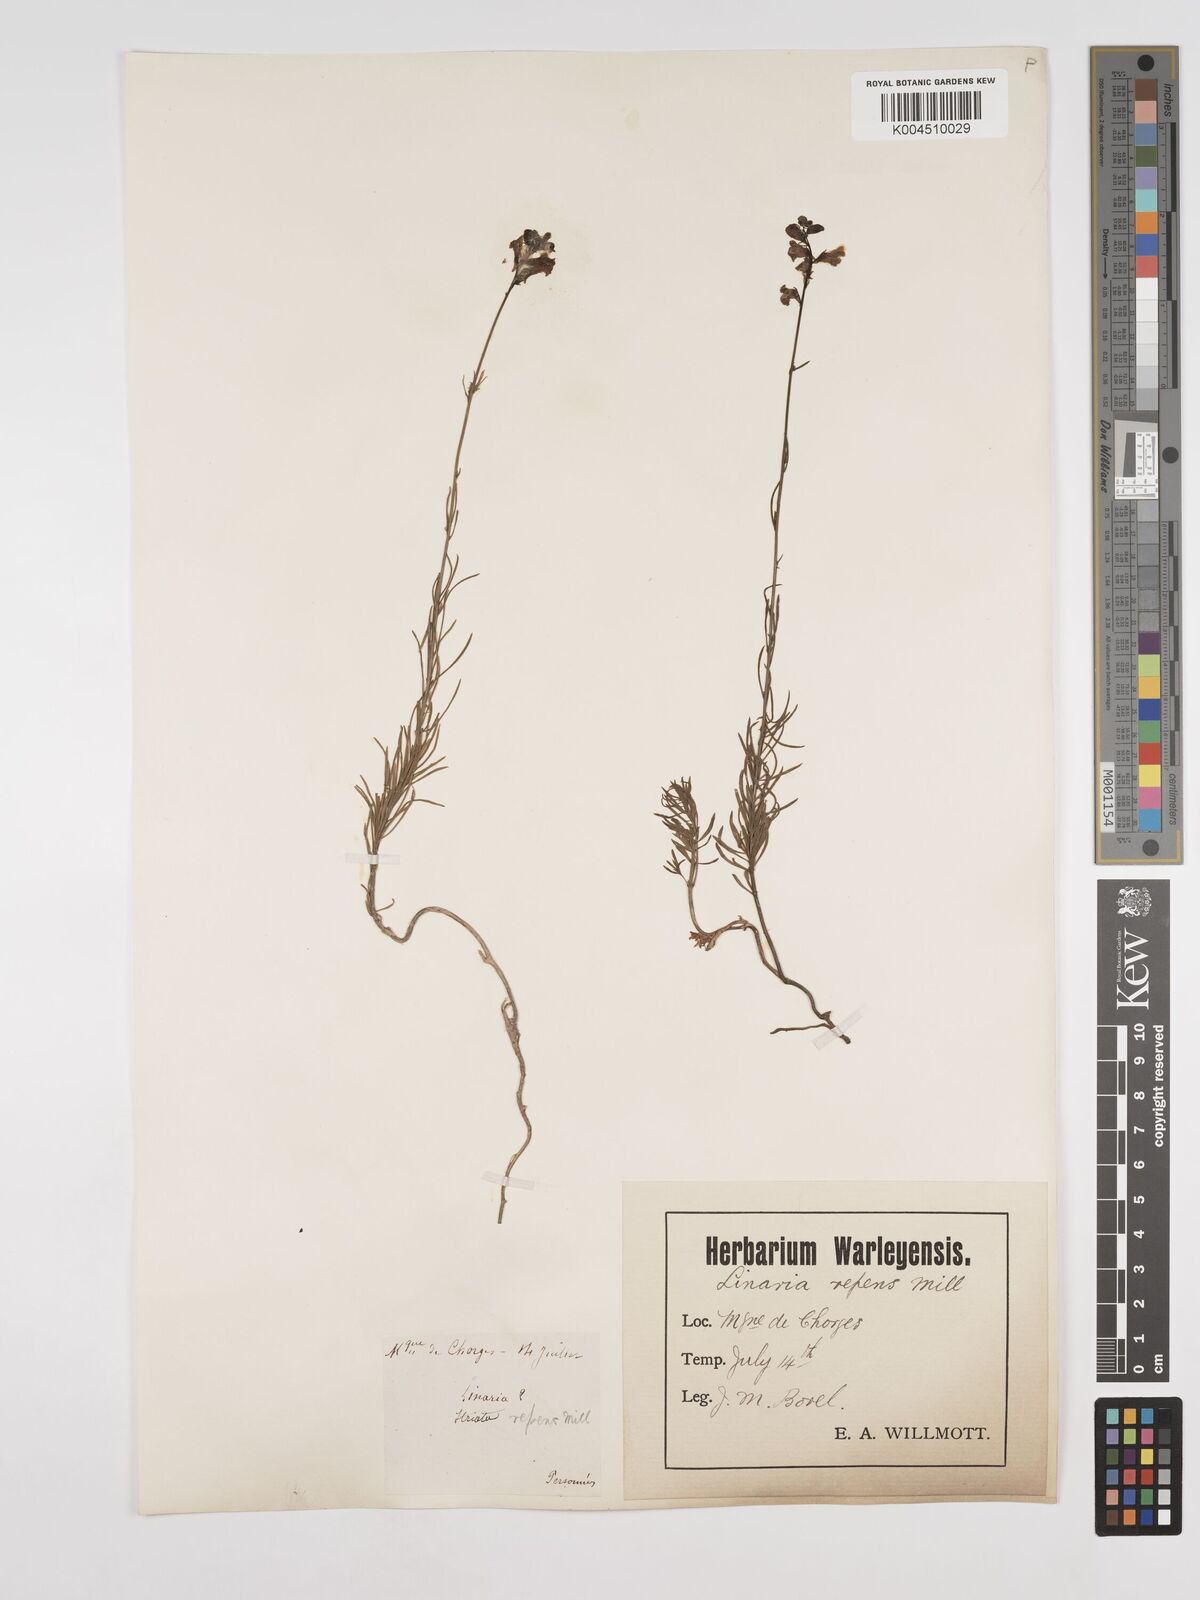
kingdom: Plantae
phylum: Tracheophyta
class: Magnoliopsida
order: Lamiales
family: Plantaginaceae
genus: Linaria
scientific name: Linaria repens
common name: Pale toadflax
